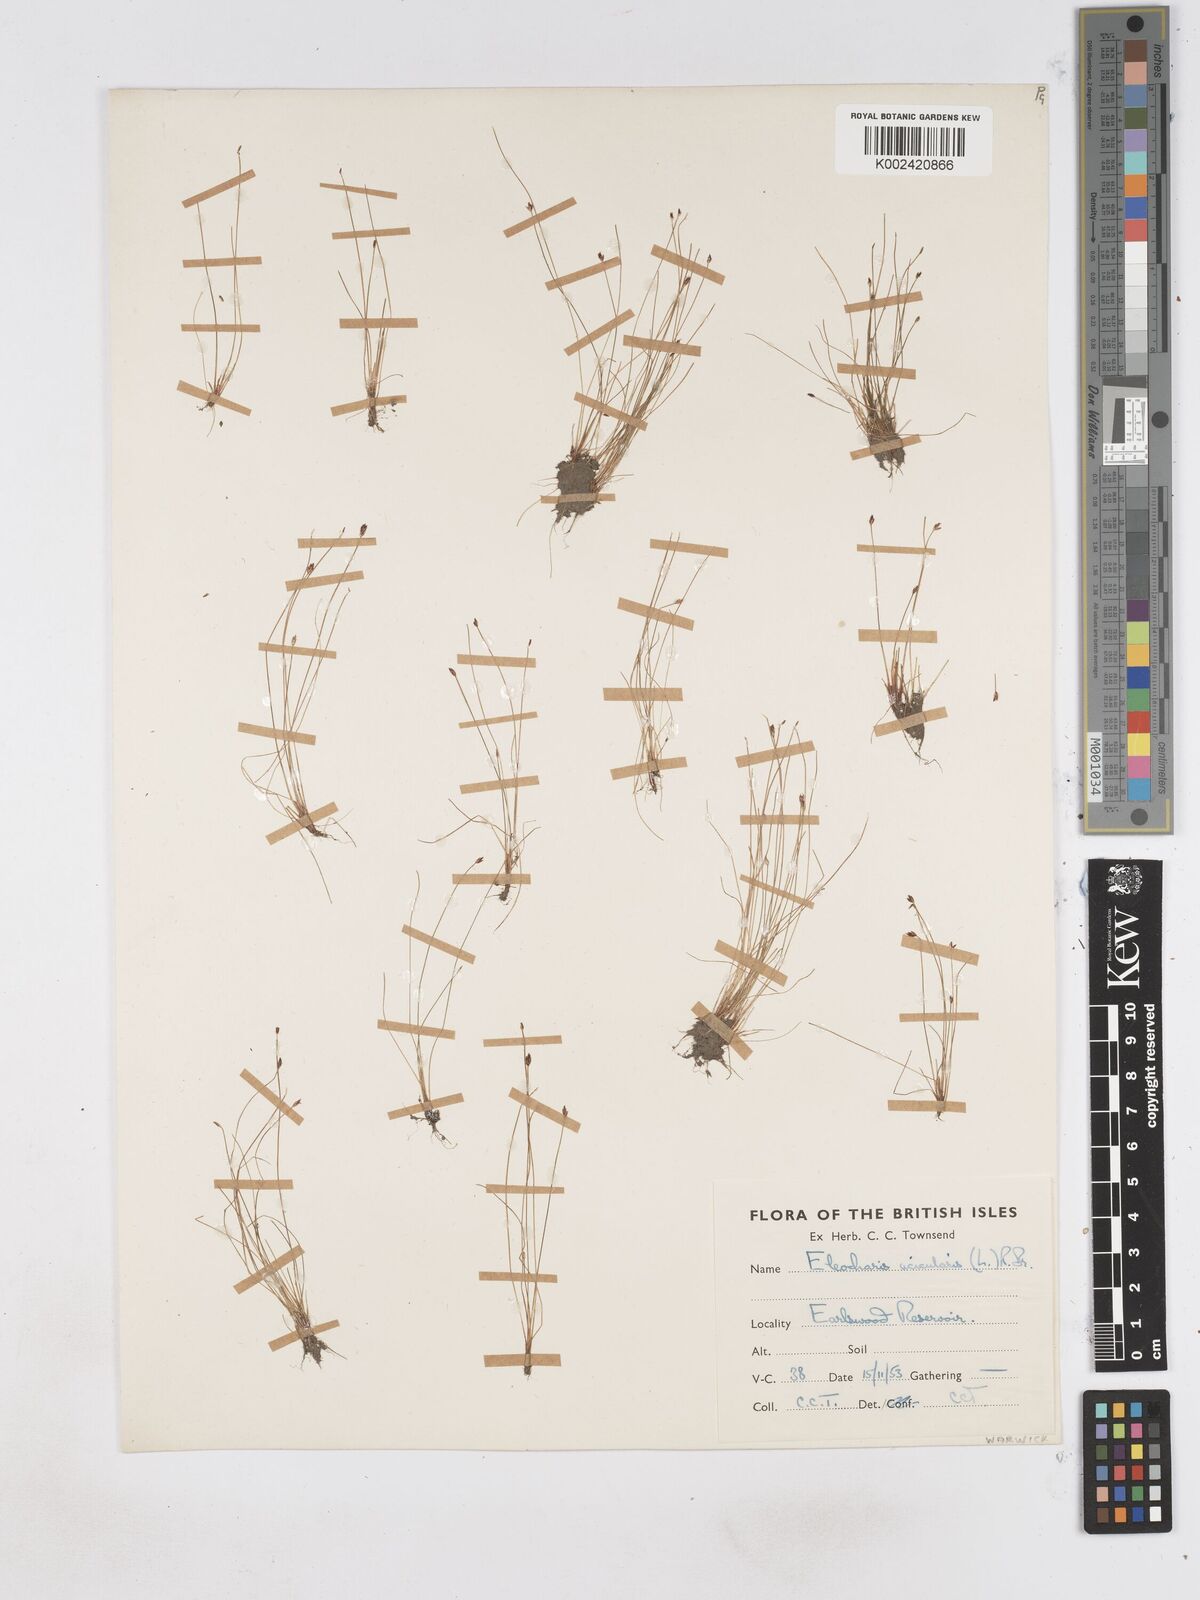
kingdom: Plantae
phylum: Tracheophyta
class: Liliopsida
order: Poales
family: Cyperaceae
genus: Eleocharis
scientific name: Eleocharis acicularis
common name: Needle spike-rush
